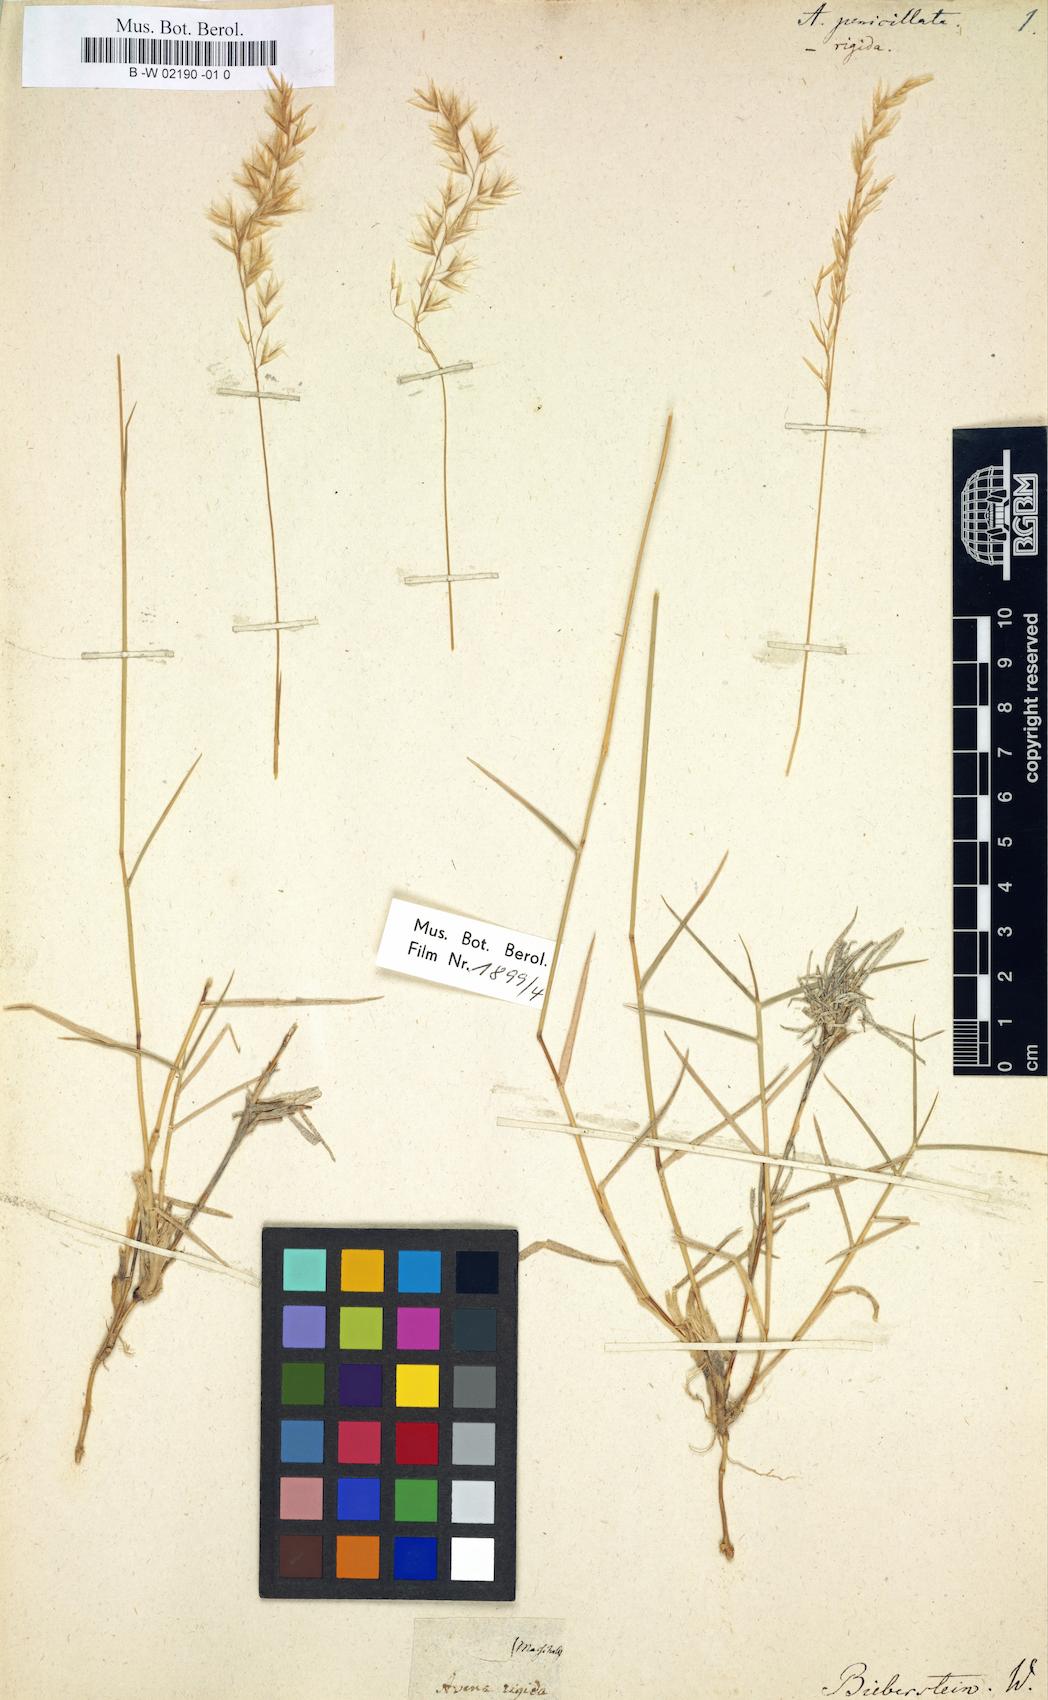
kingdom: Plantae
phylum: Tracheophyta
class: Liliopsida
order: Poales
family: Poaceae
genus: Trisetum
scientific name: Trisetum rigidum
